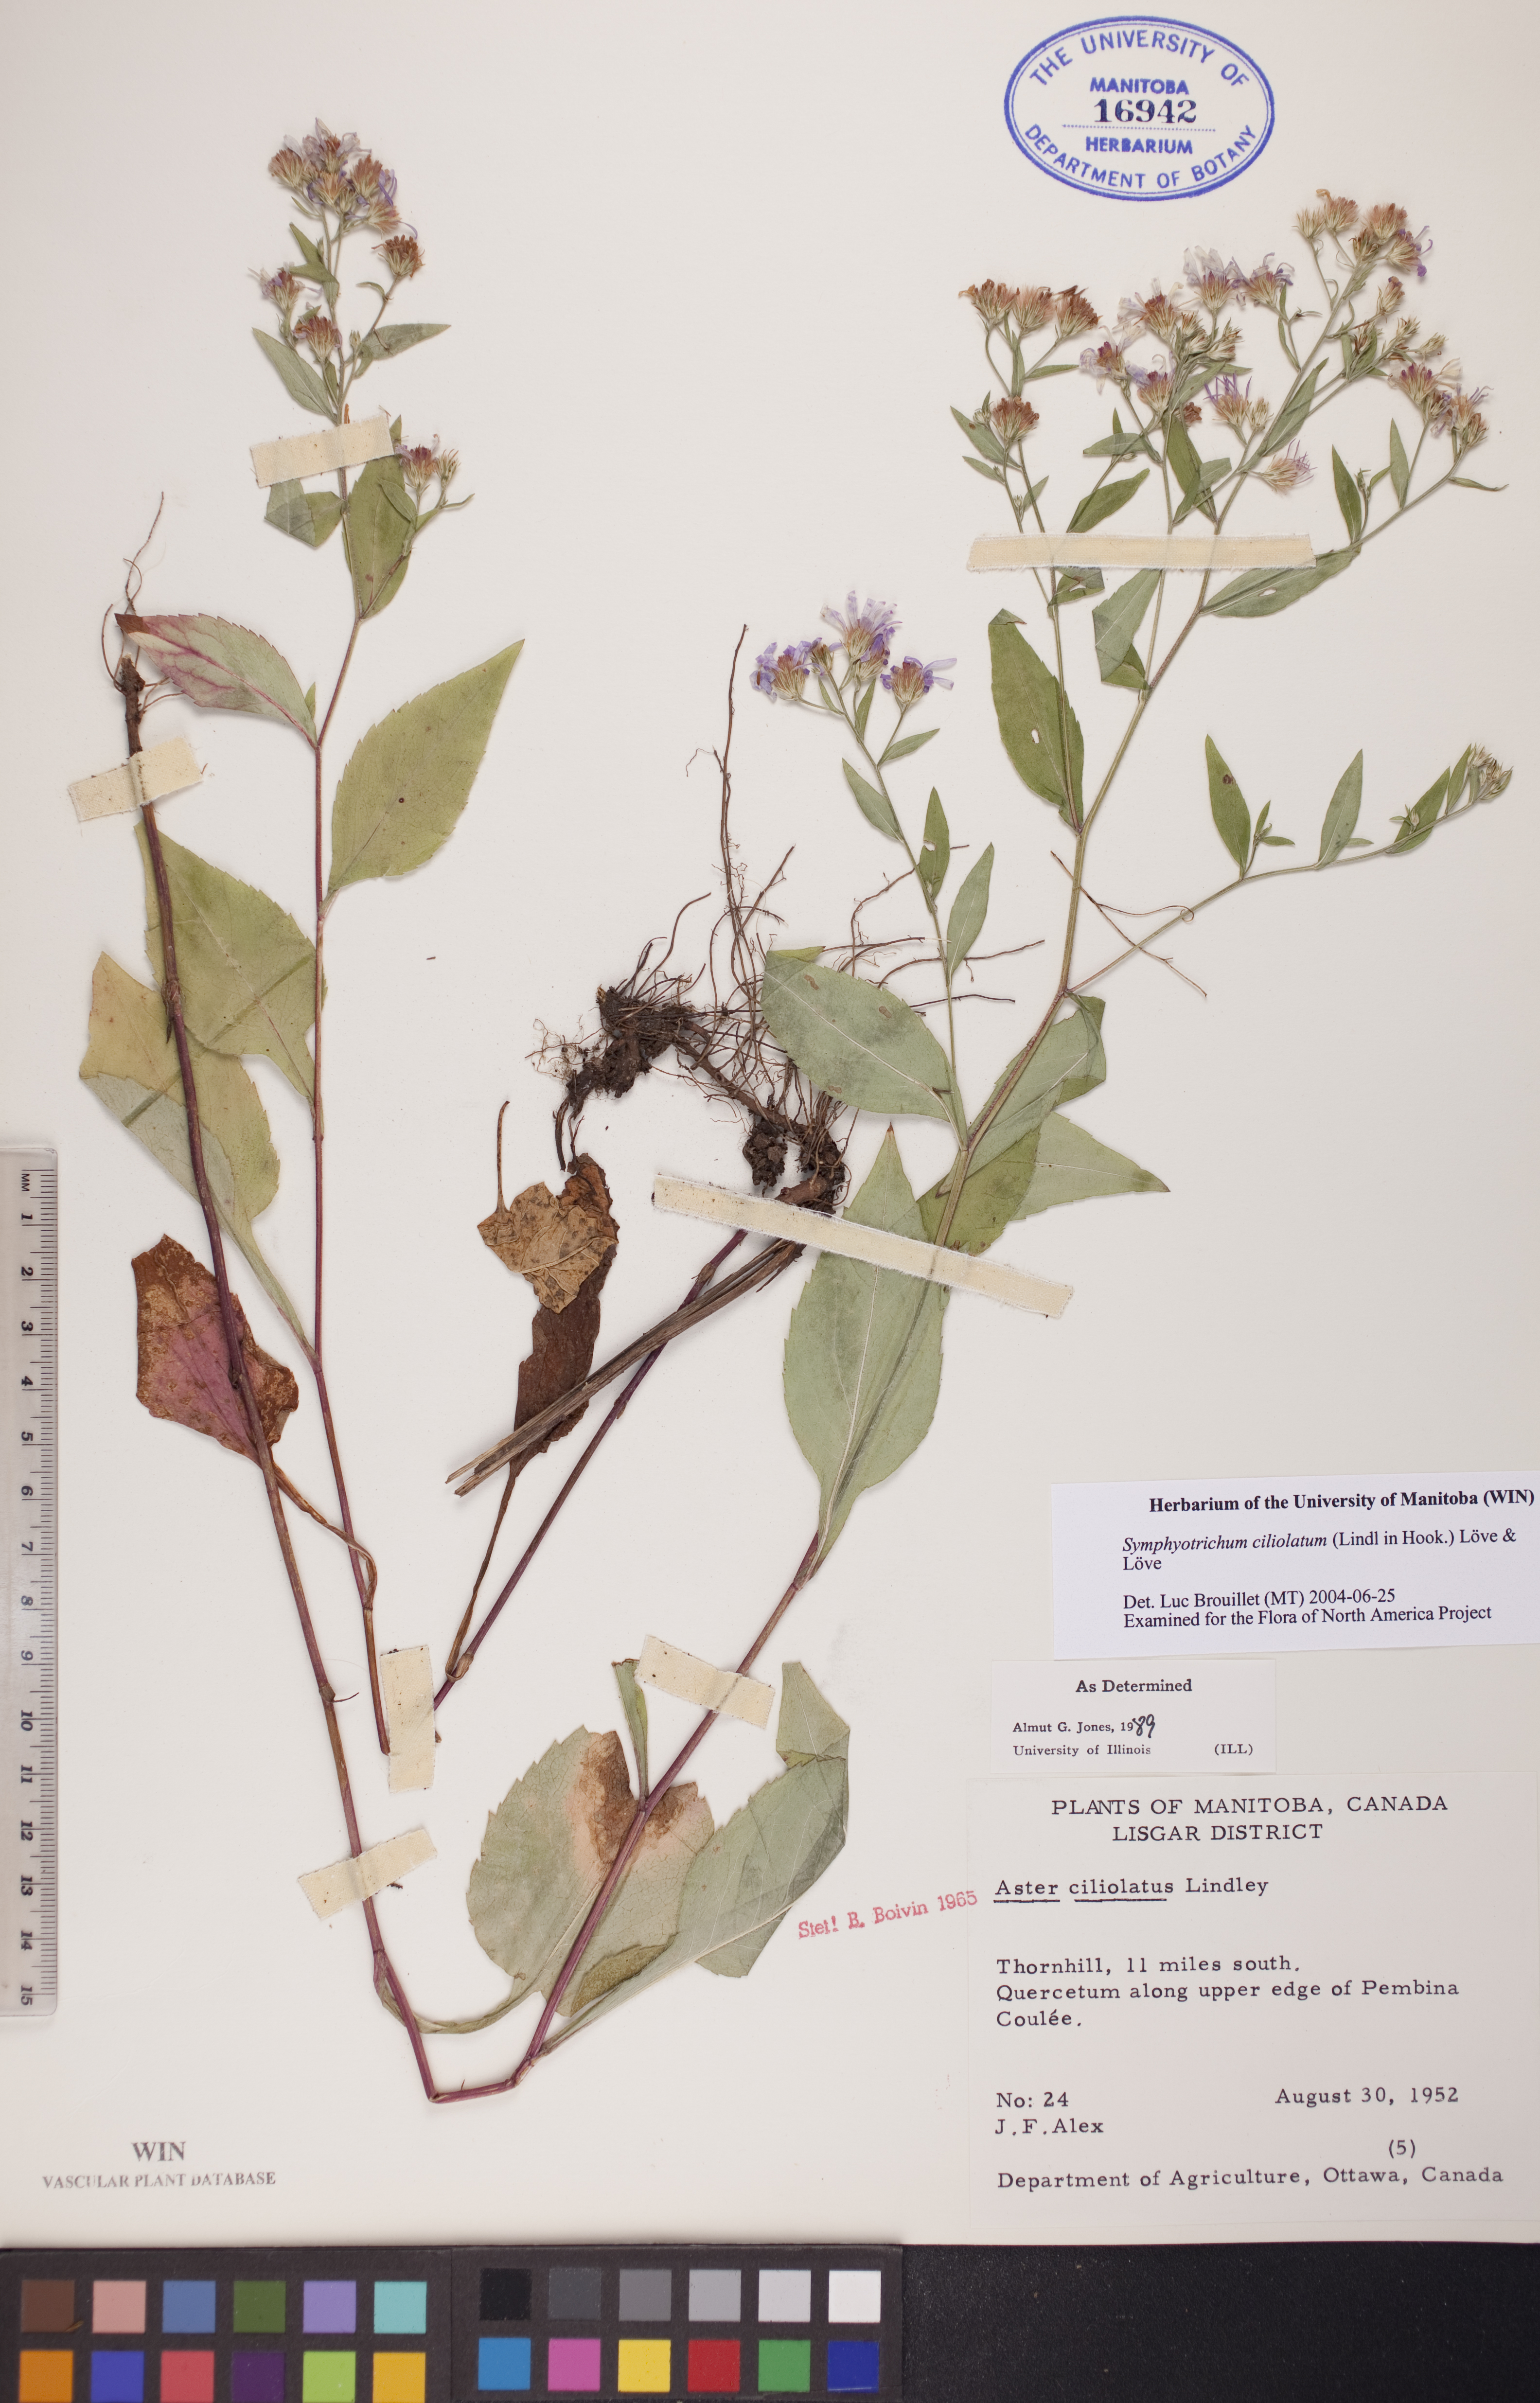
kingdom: Plantae
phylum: Tracheophyta
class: Magnoliopsida
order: Asterales
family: Asteraceae
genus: Symphyotrichum
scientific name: Symphyotrichum ciliolatum
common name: Fringed blue aster
